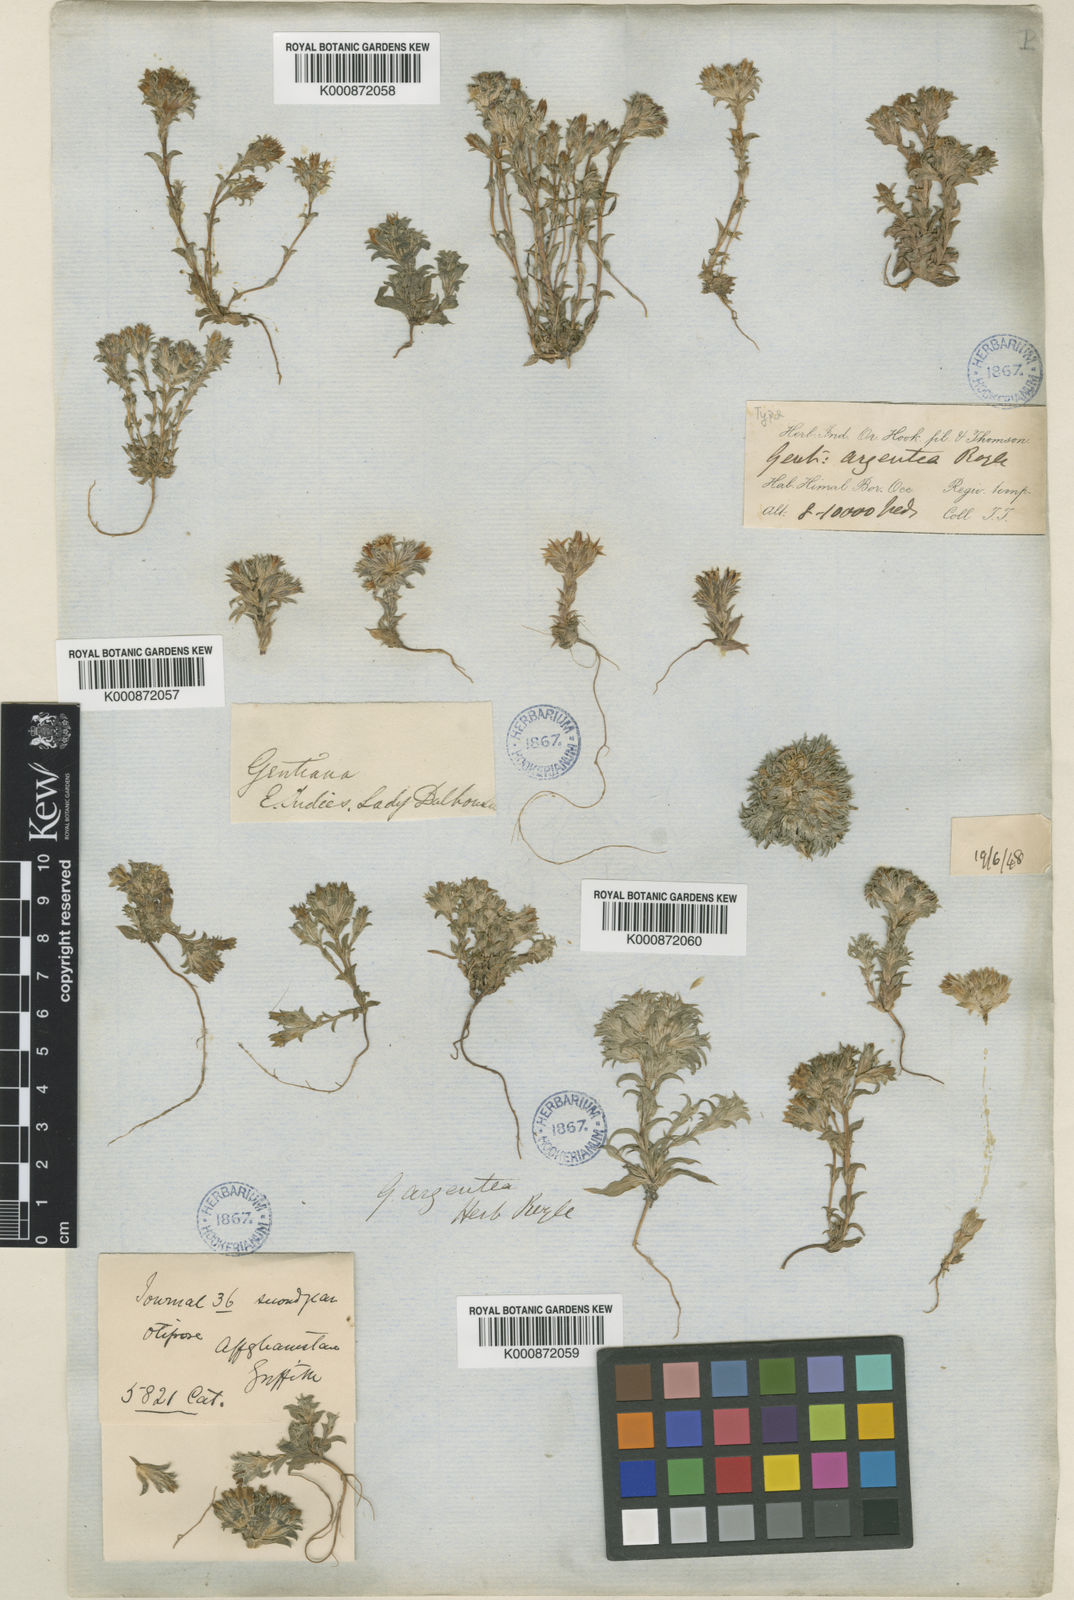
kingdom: Plantae
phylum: Tracheophyta
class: Magnoliopsida
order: Gentianales
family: Gentianaceae
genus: Gentiana
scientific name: Gentiana argentea
